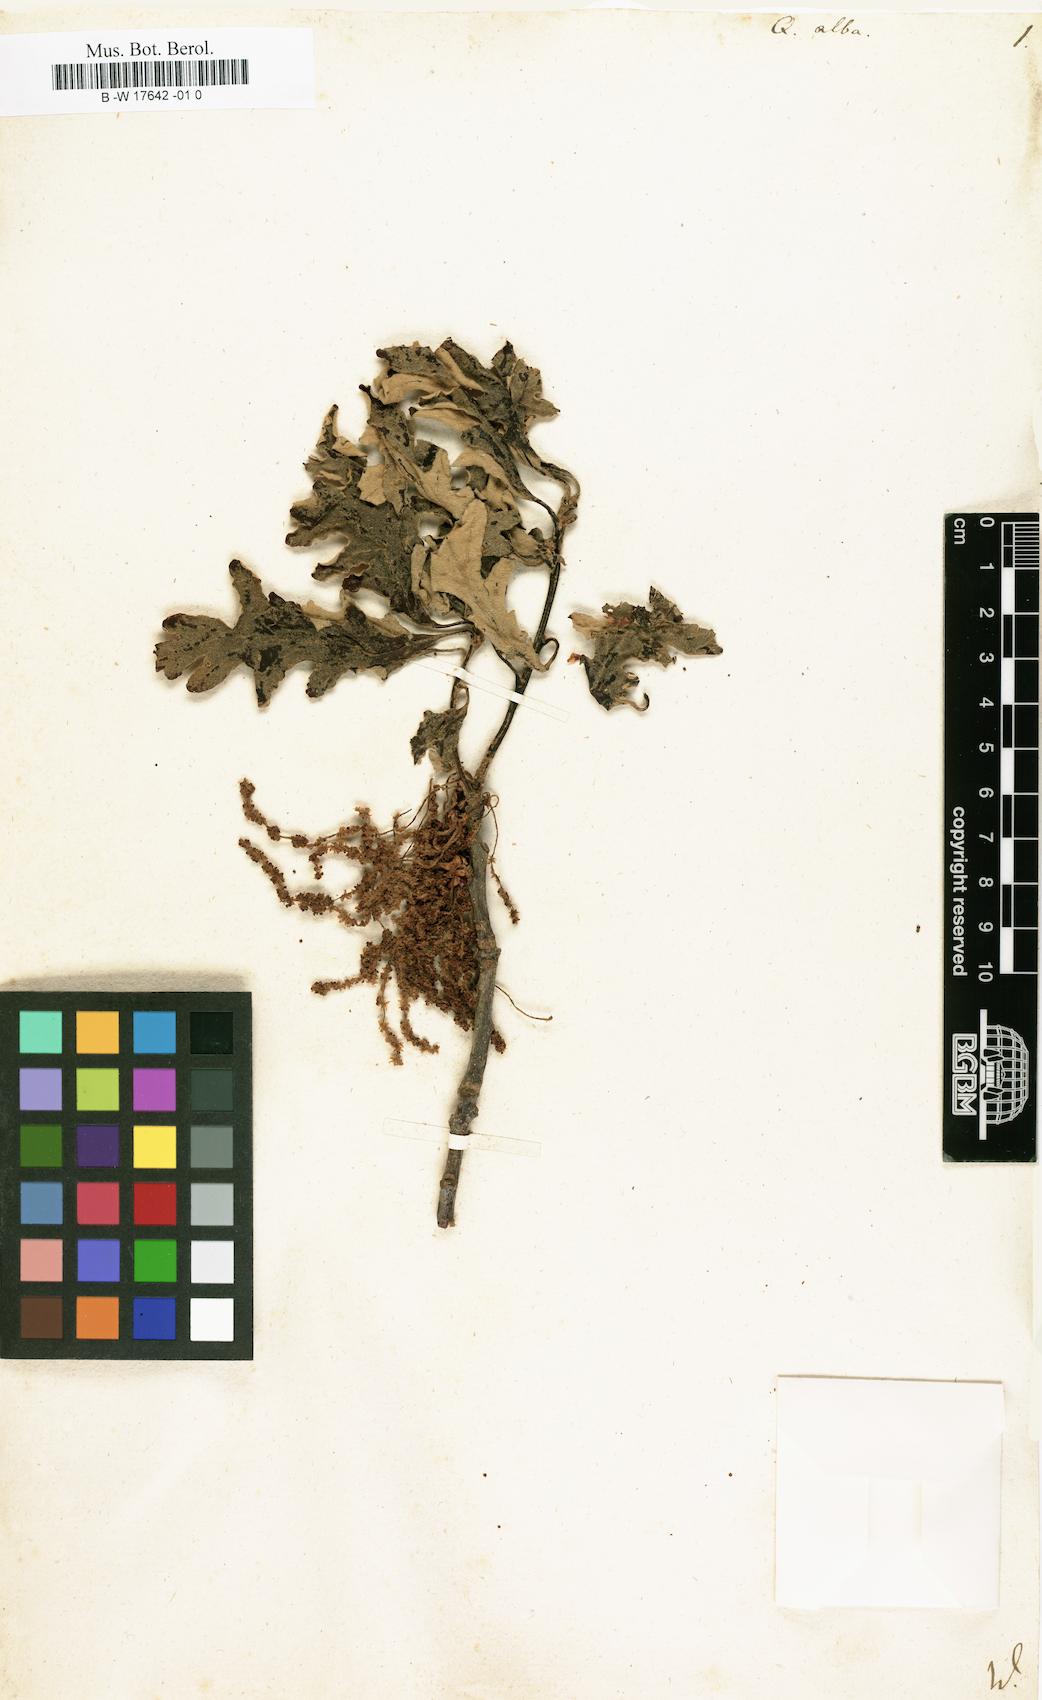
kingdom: Plantae
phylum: Tracheophyta
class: Magnoliopsida
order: Fagales
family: Fagaceae
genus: Quercus
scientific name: Quercus alba
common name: White oak
